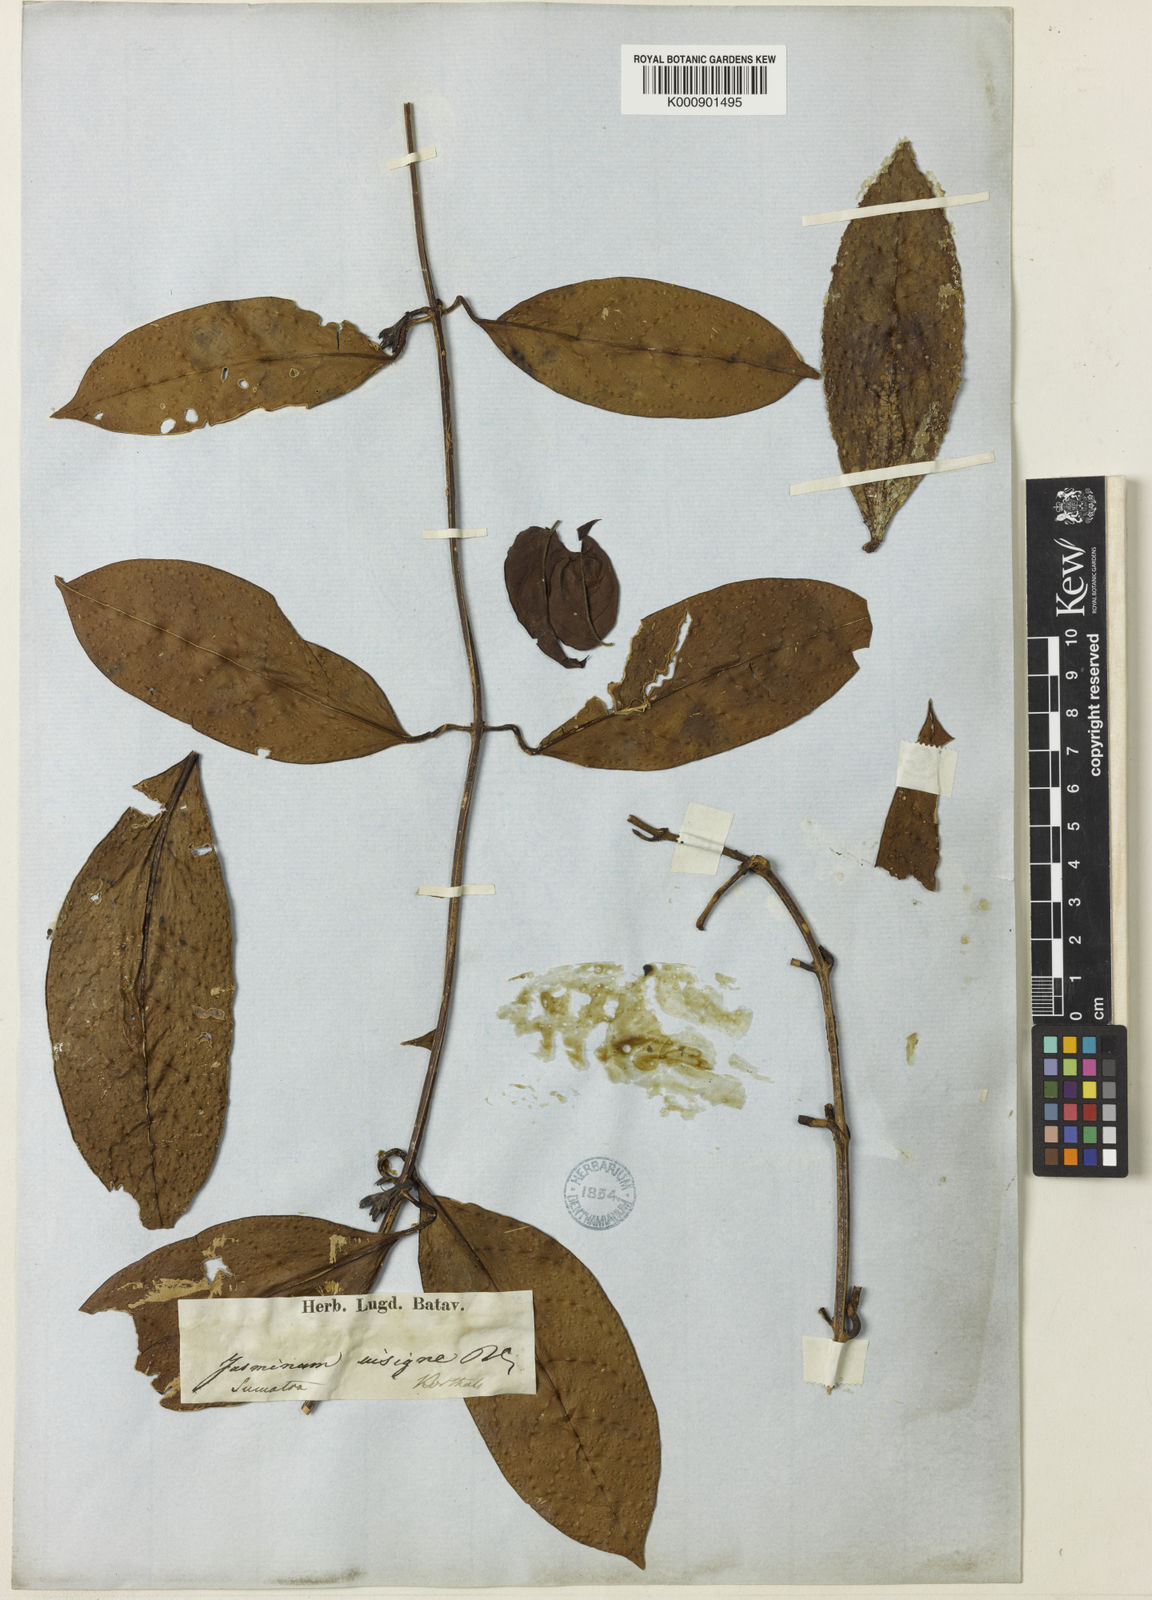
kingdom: Plantae
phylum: Tracheophyta
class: Magnoliopsida
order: Lamiales
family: Oleaceae
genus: Jasminum
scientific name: Jasminum insigne
